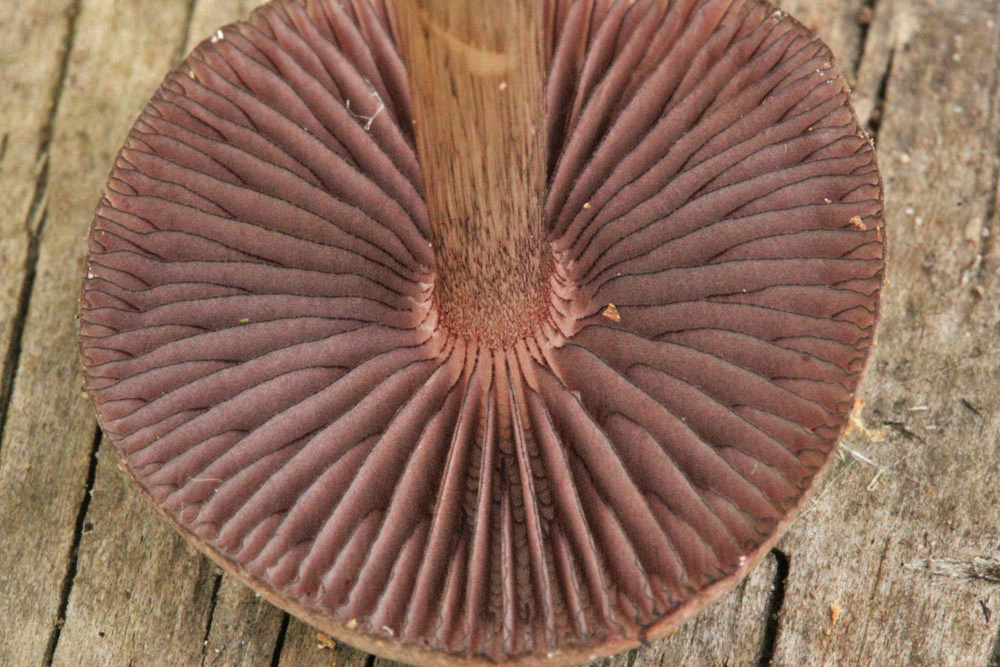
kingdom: Fungi
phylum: Basidiomycota
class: Agaricomycetes
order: Agaricales
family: Mycenaceae
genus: Mycena
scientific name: Mycena pelianthina
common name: mørkbladet huesvamp
